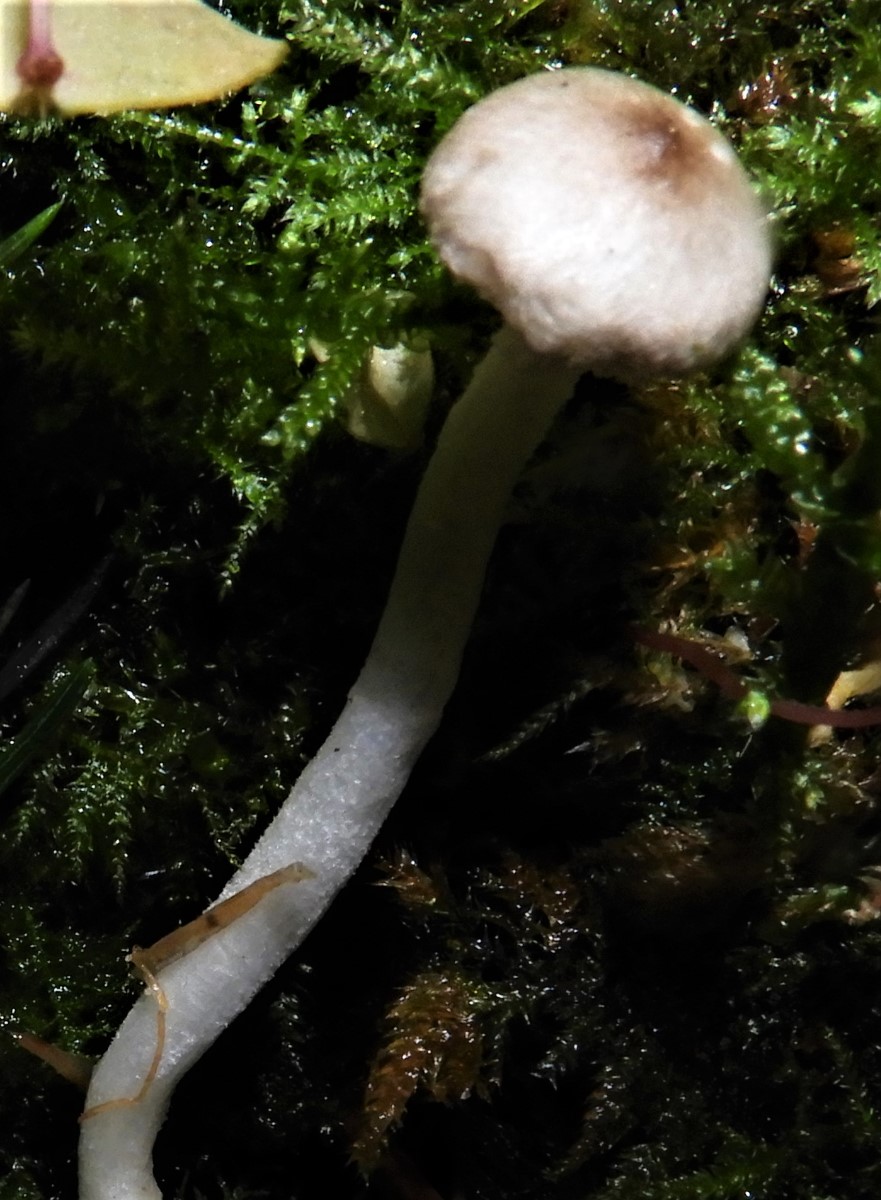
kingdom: Fungi
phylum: Basidiomycota
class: Agaricomycetes
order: Agaricales
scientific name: Agaricales
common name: champignonordenen
